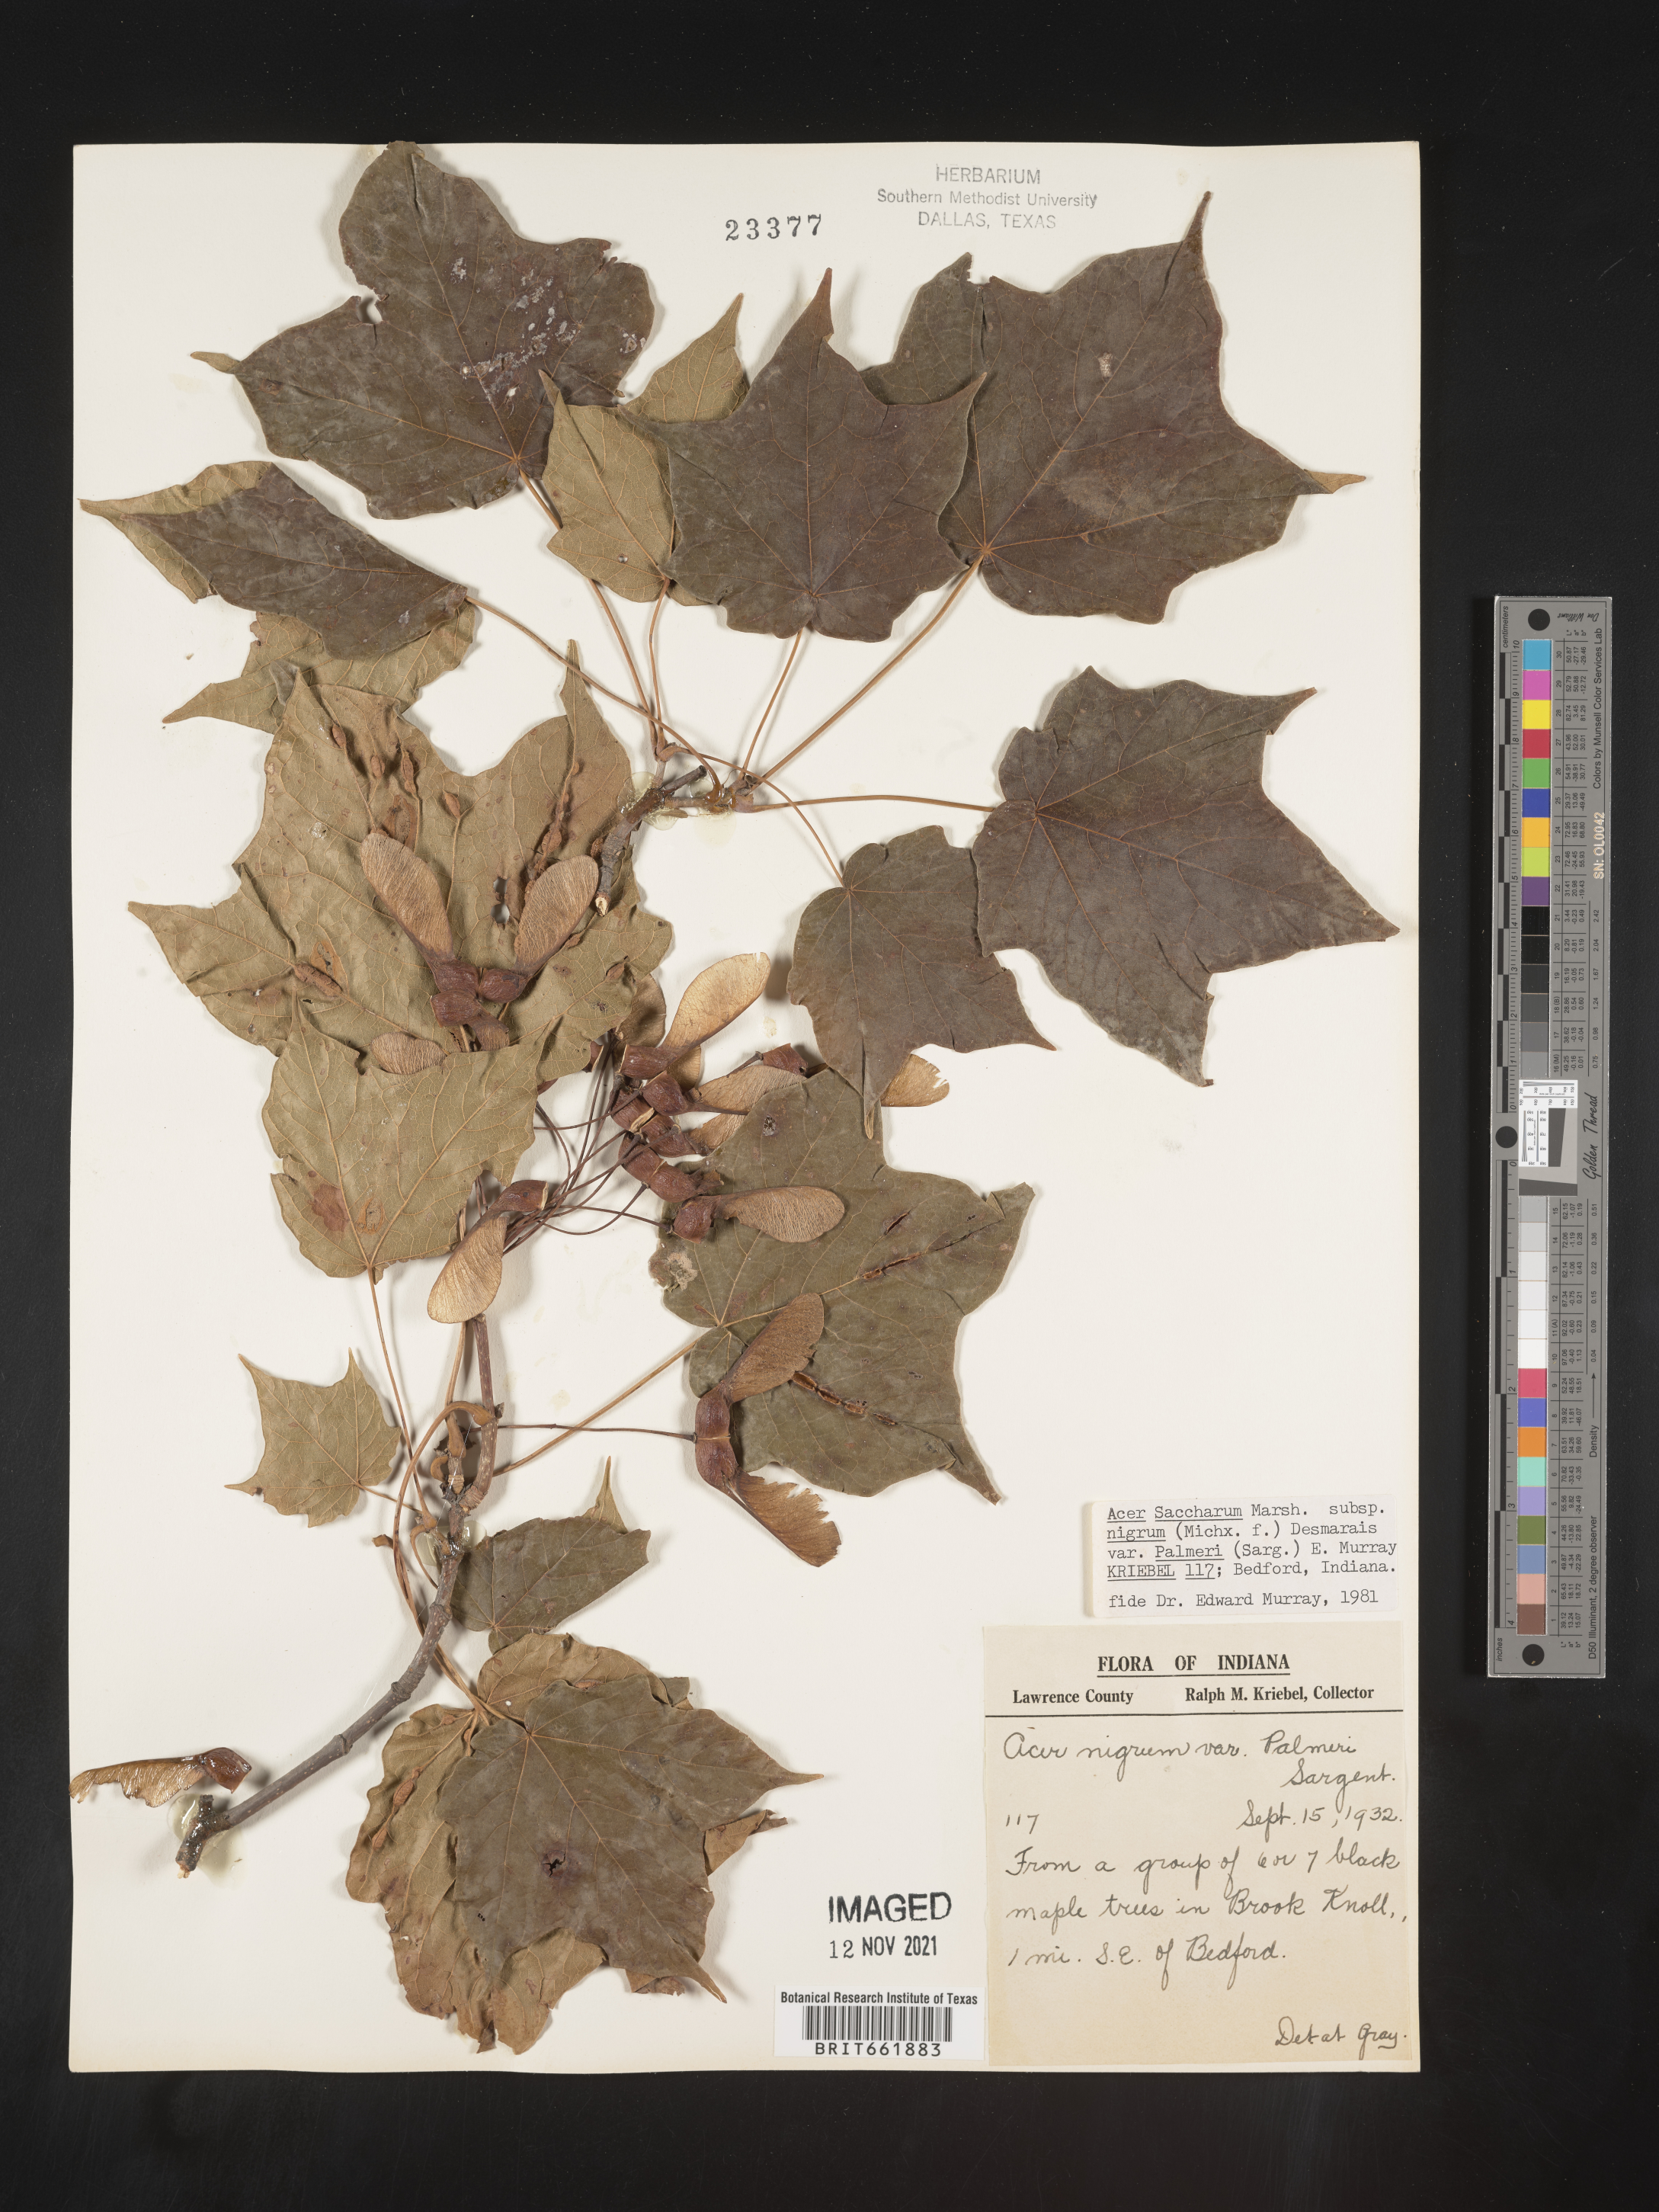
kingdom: Plantae
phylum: Tracheophyta
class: Magnoliopsida
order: Sapindales
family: Sapindaceae
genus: Acer
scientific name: Acer nigrum
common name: Black maple
